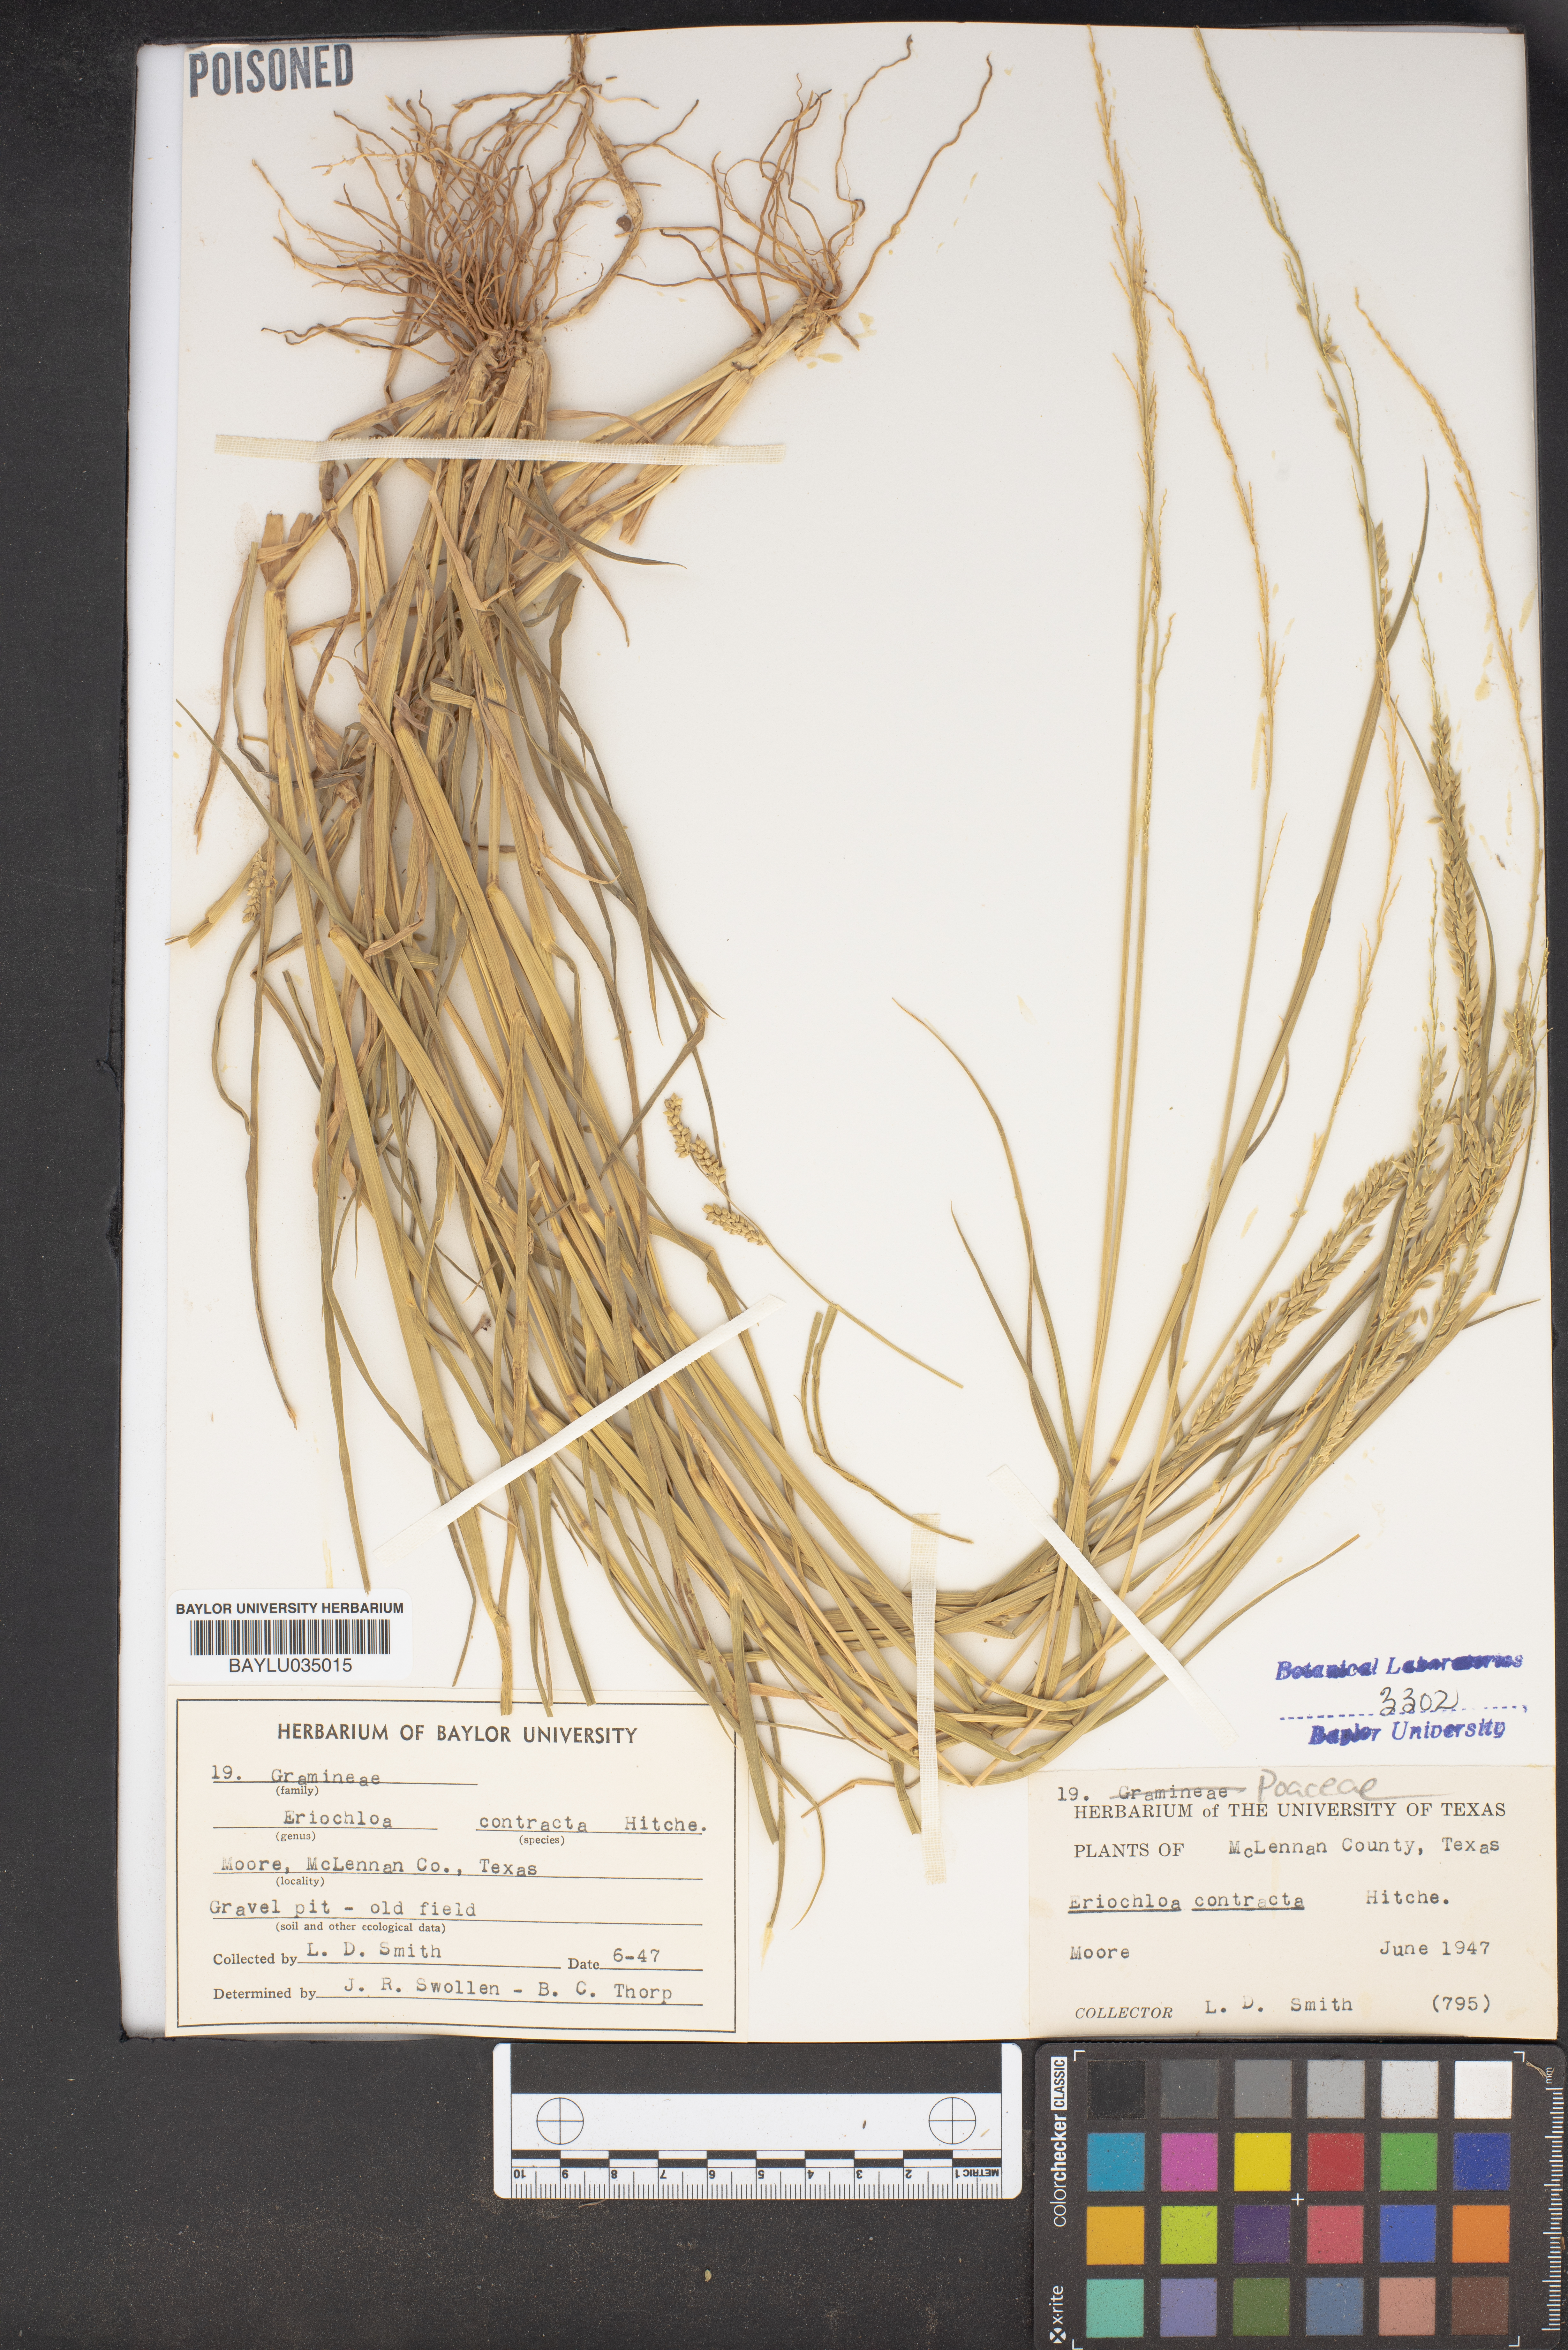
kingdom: Plantae
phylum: Tracheophyta
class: Liliopsida
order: Poales
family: Poaceae
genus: Eriochloa
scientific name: Eriochloa contracta
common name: Prairie cup grass
